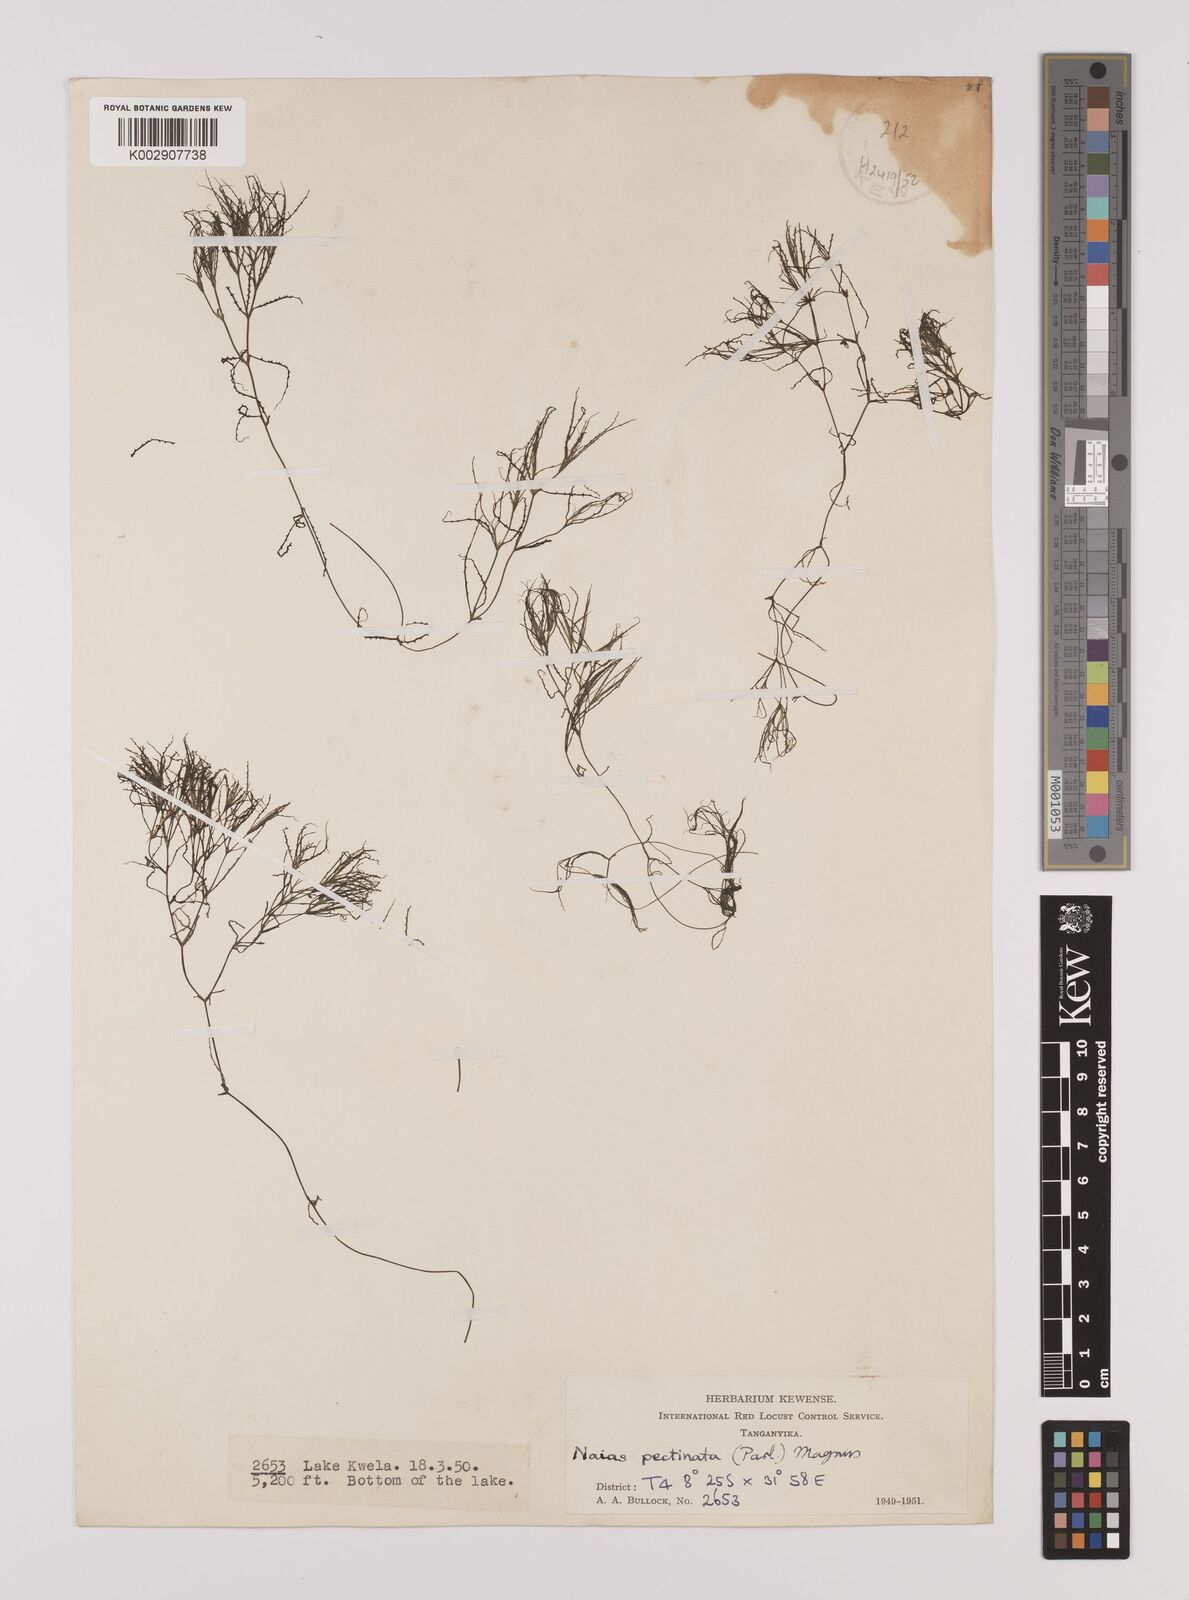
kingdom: Plantae
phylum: Tracheophyta
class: Liliopsida
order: Alismatales
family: Hydrocharitaceae
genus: Najas
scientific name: Najas horrida
